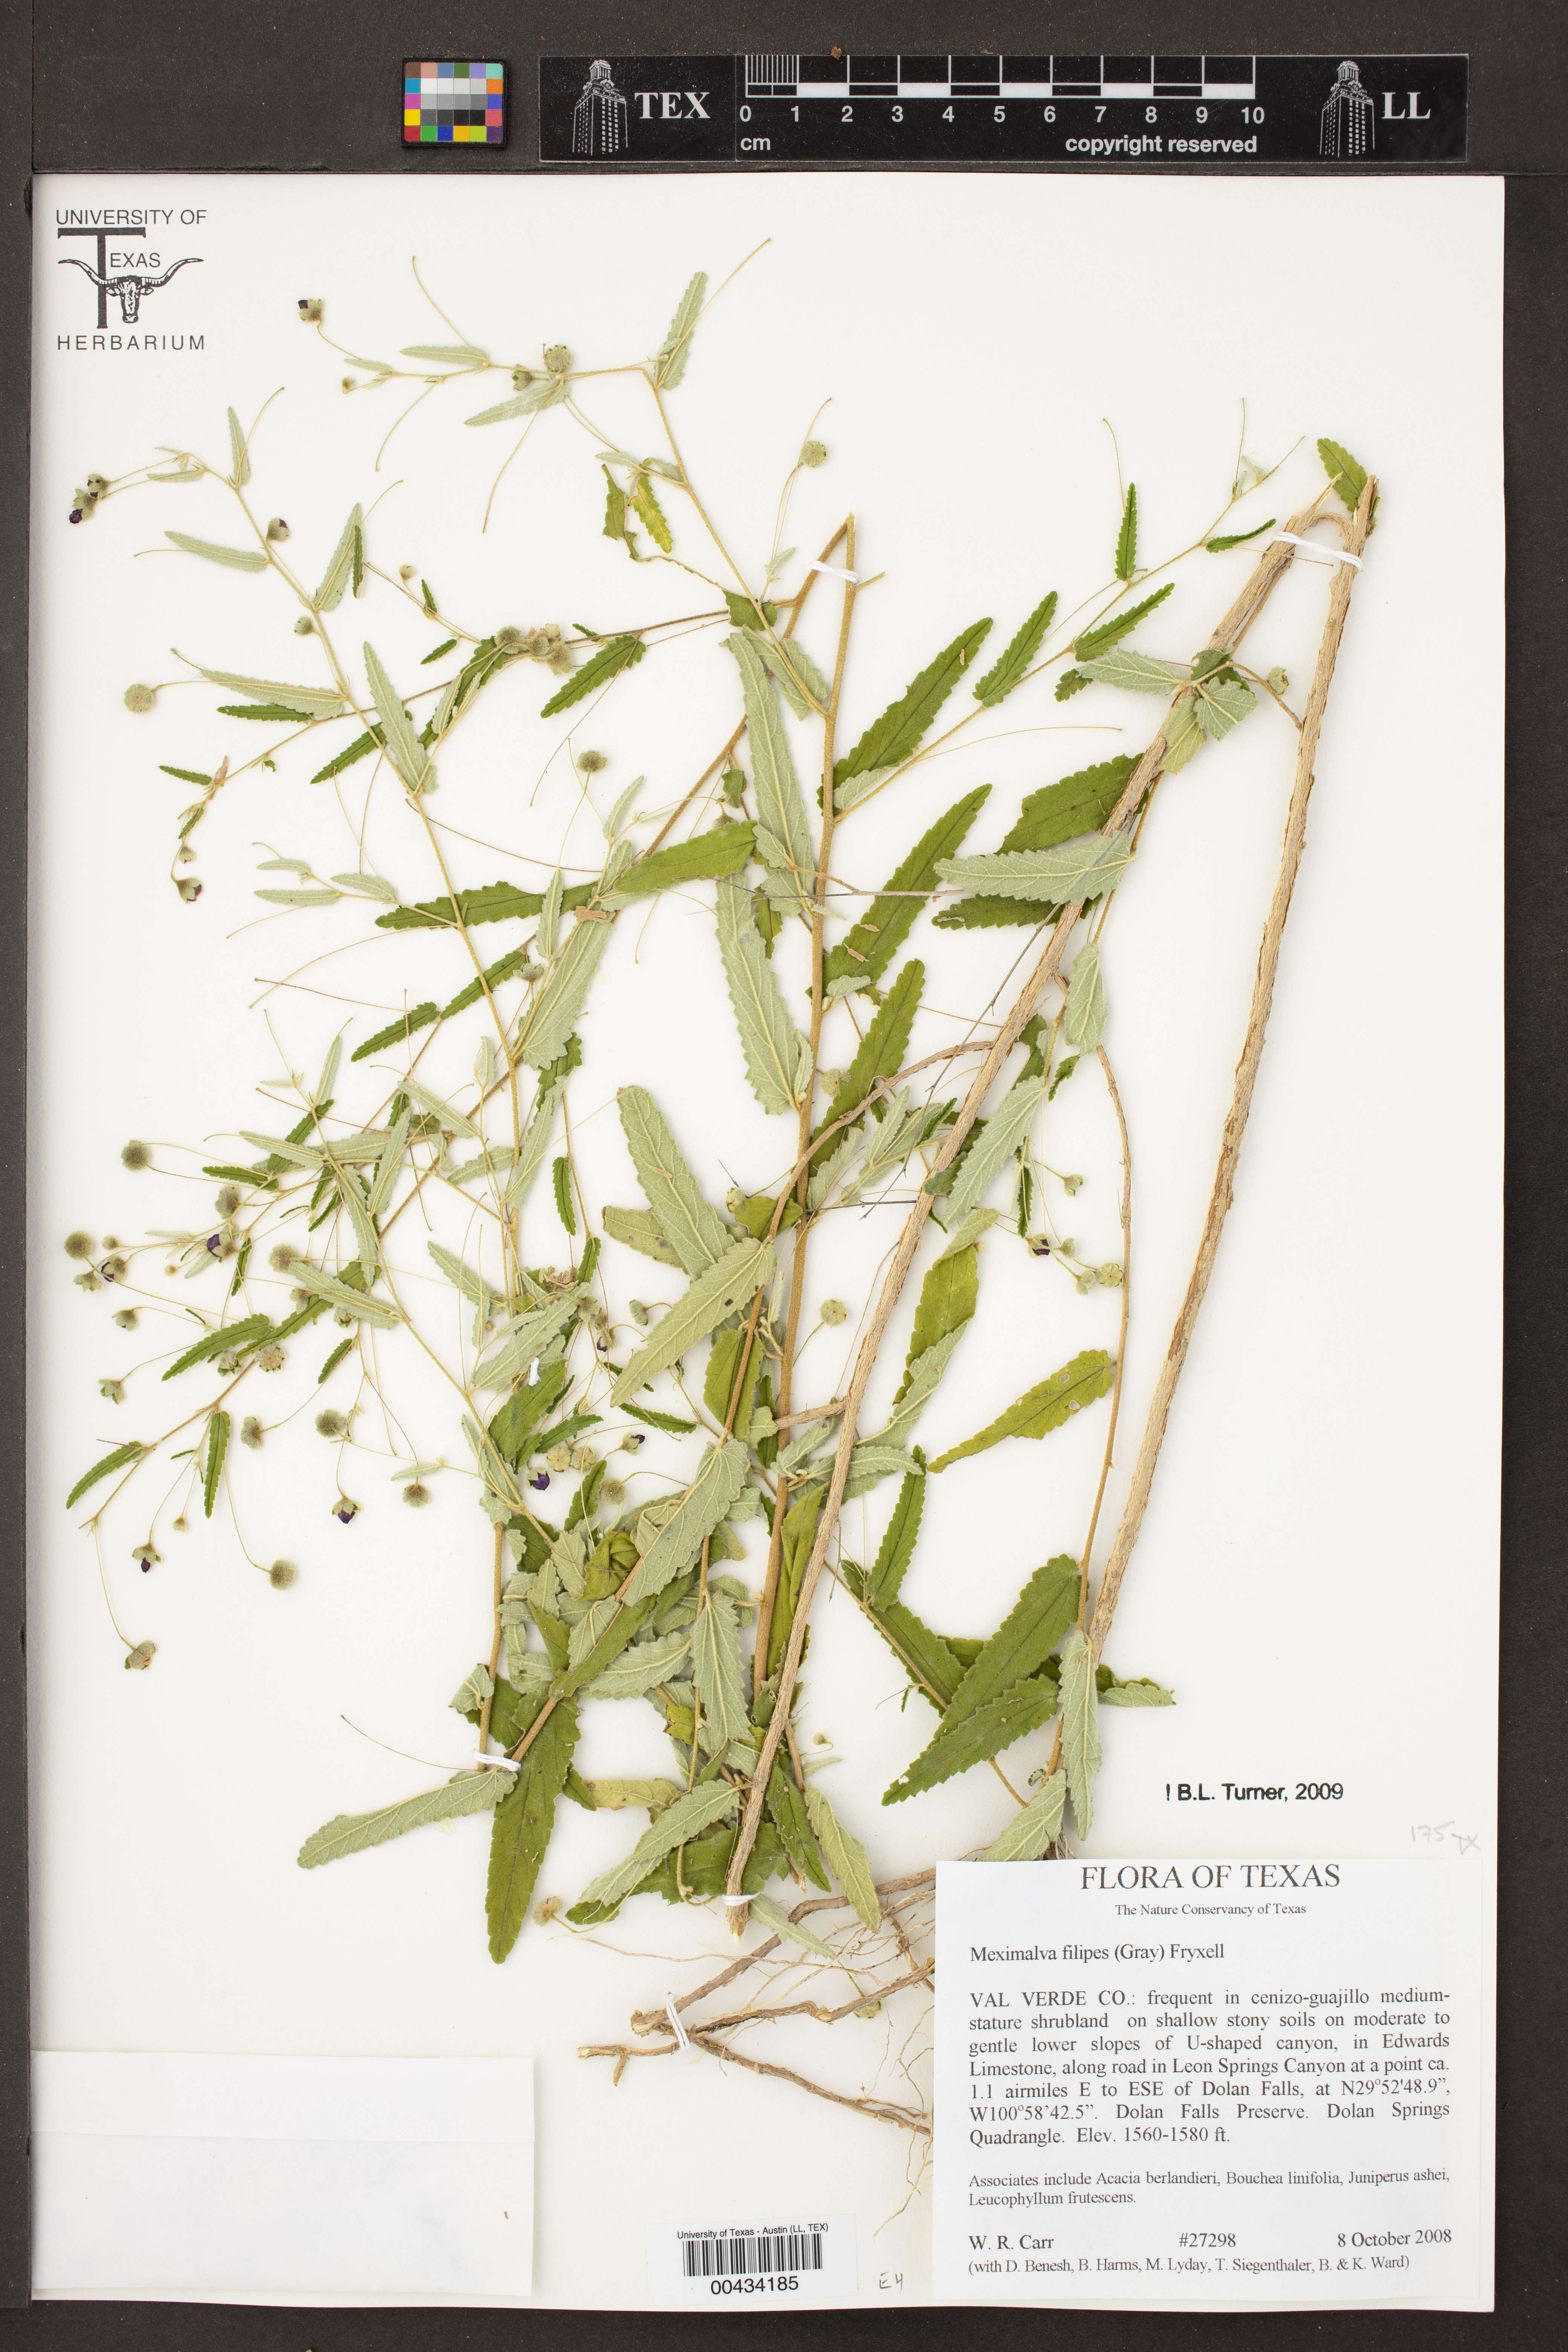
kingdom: Plantae
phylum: Tracheophyta
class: Magnoliopsida
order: Malvales
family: Malvaceae
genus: Meximalva
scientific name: Meximalva filipes
